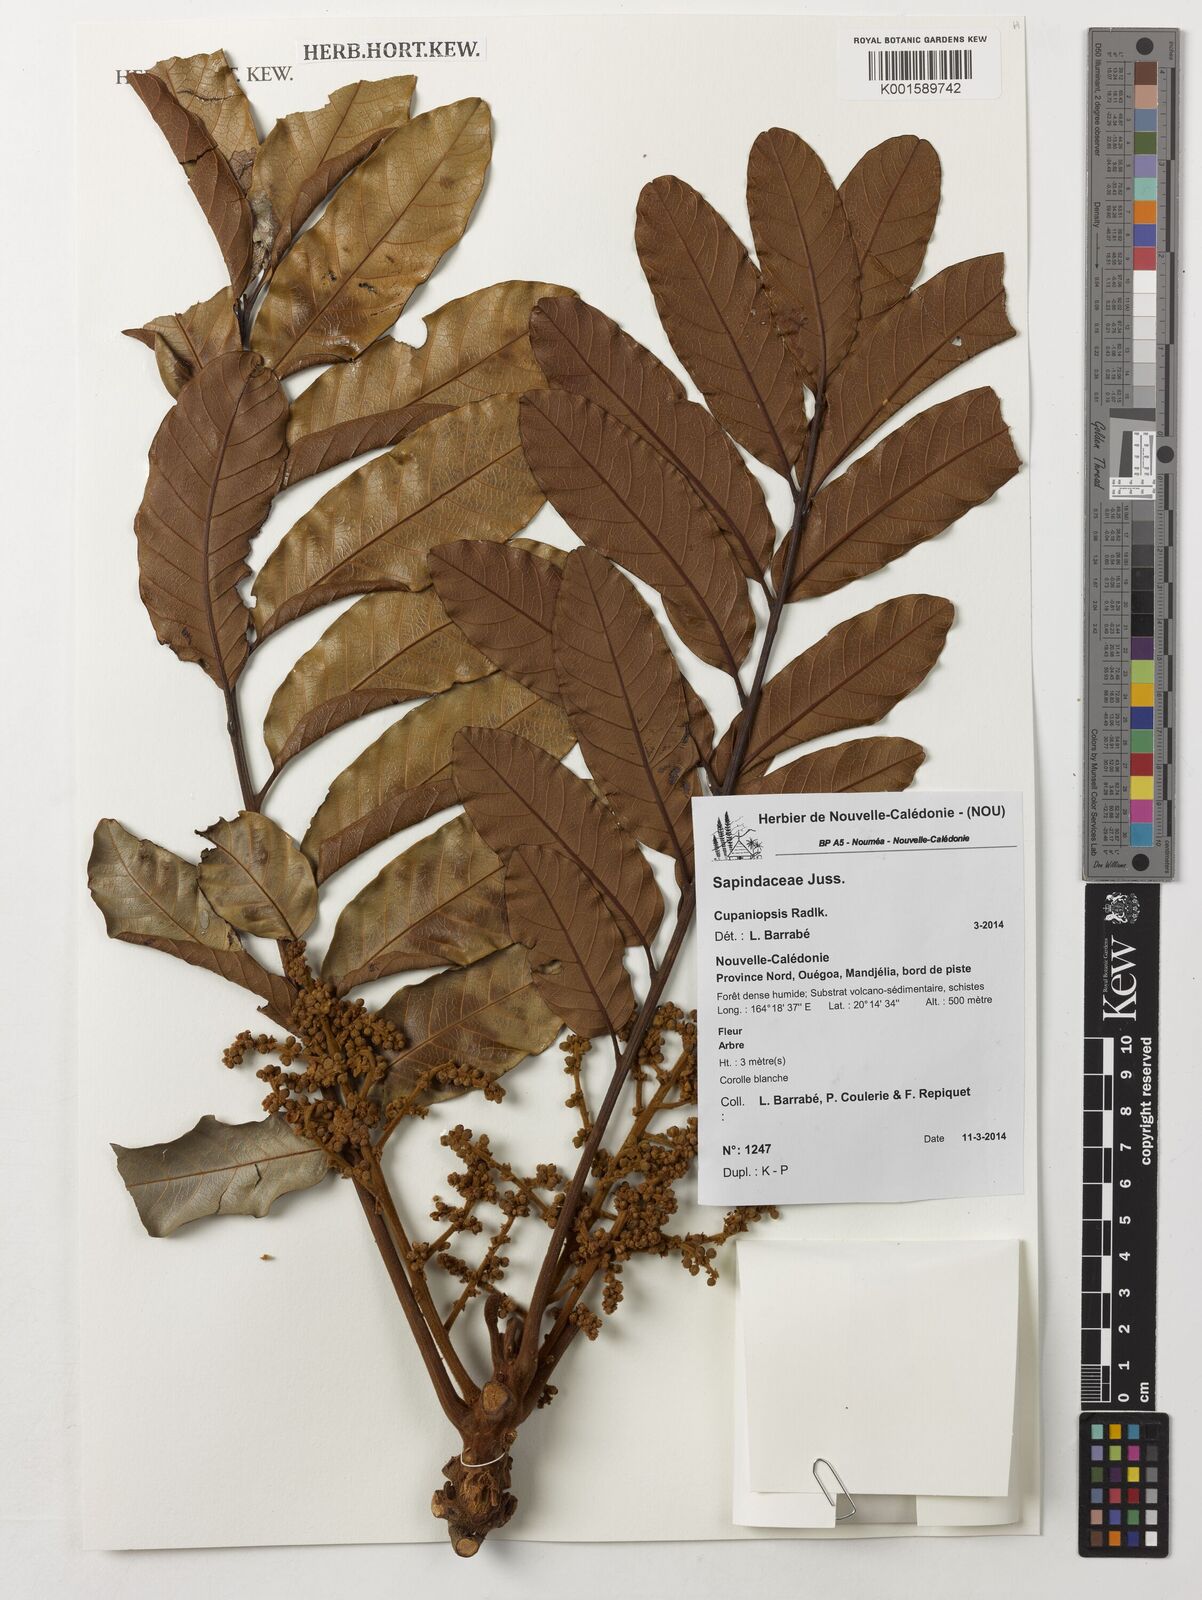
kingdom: Plantae
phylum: Tracheophyta
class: Magnoliopsida
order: Malpighiales
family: Rhizophoraceae
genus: Rhizophora
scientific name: Rhizophora
